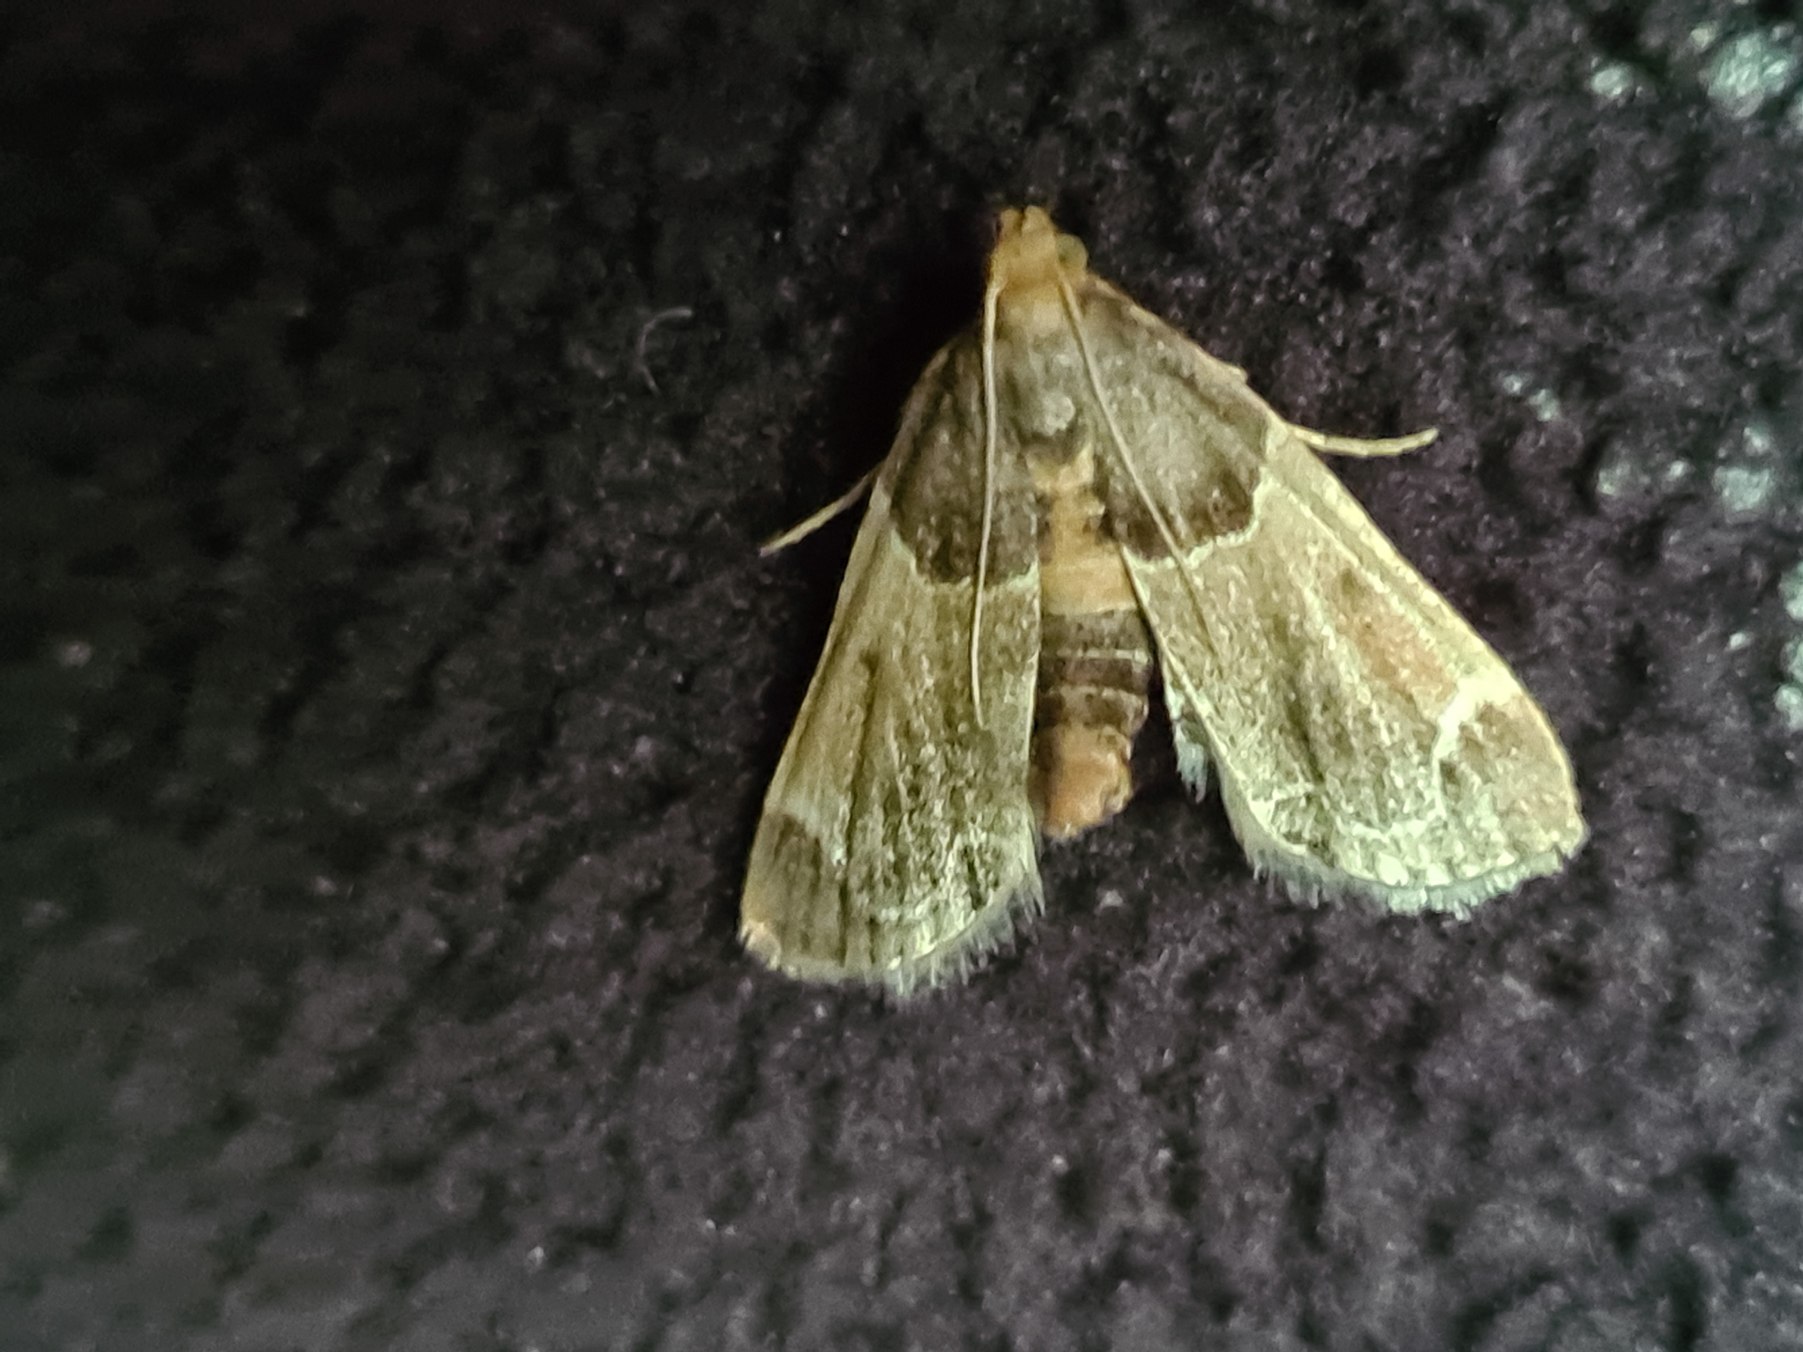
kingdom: Animalia
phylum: Arthropoda
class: Insecta
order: Lepidoptera
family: Pyralidae
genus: Pyralis
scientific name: Pyralis farinalis
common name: Stort melmøl
